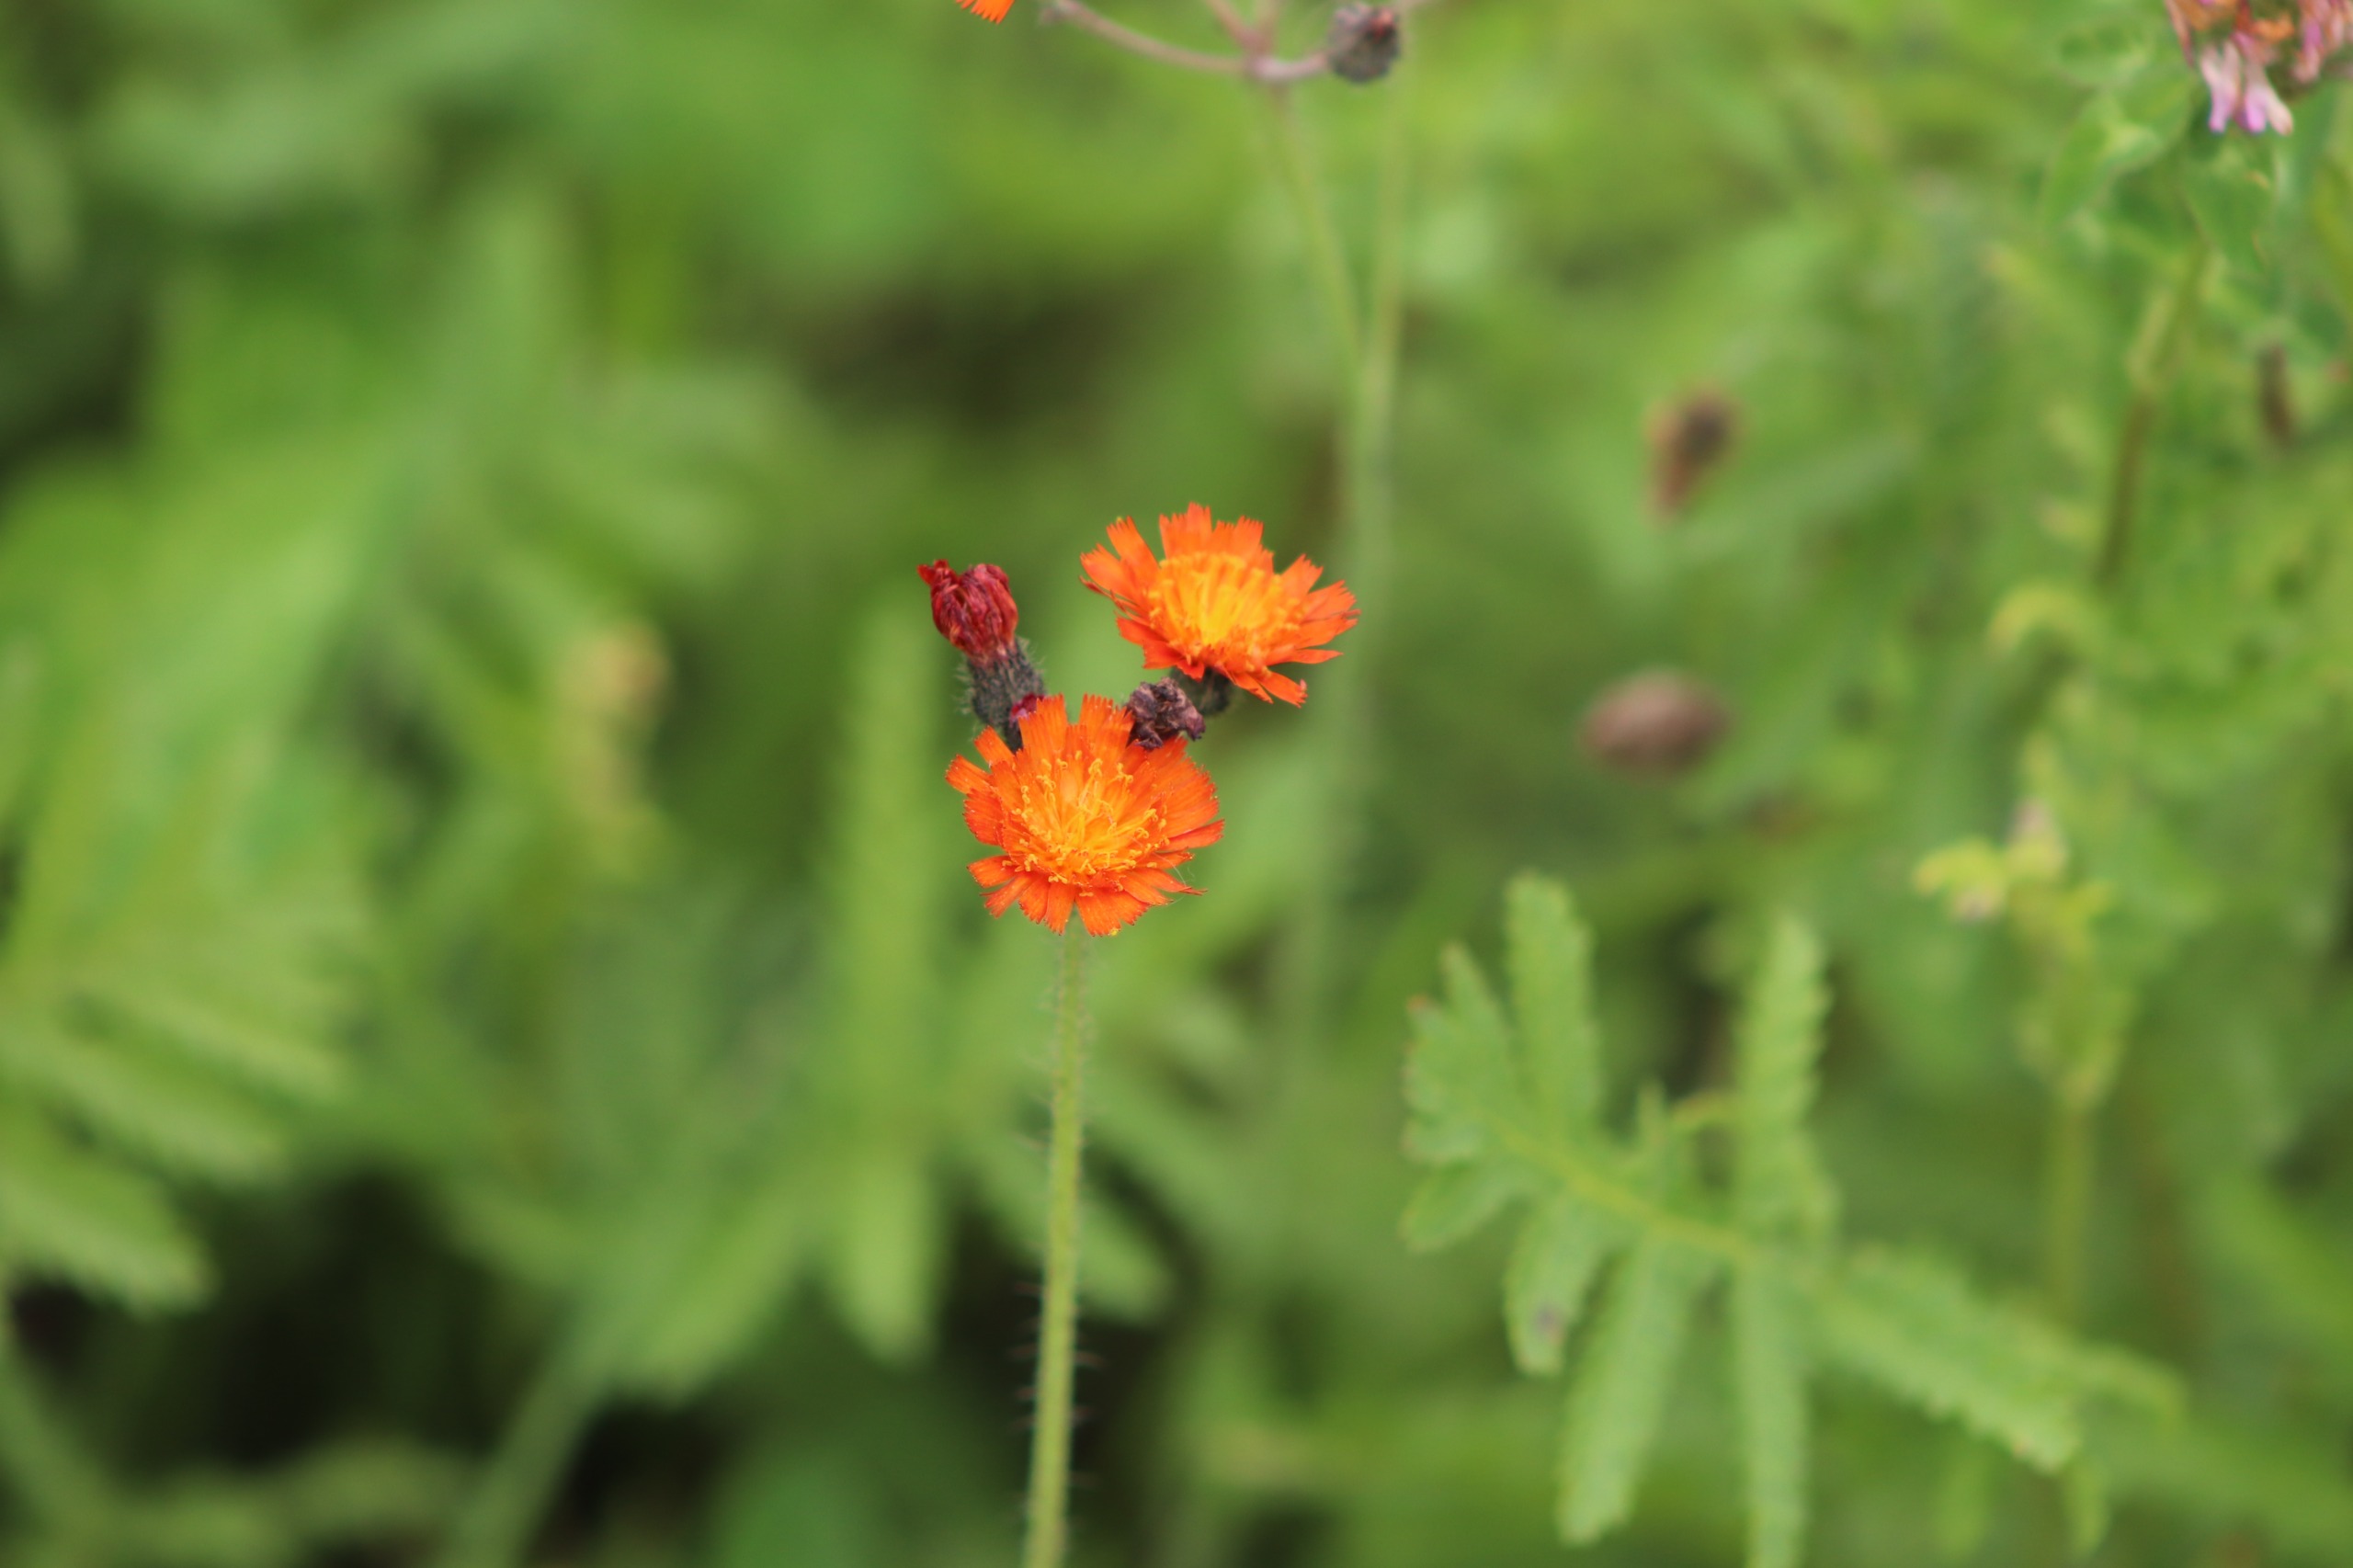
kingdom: Plantae
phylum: Tracheophyta
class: Magnoliopsida
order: Asterales
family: Asteraceae
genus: Pilosella
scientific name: Pilosella aurantiaca
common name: Pomerans-høgeurt
